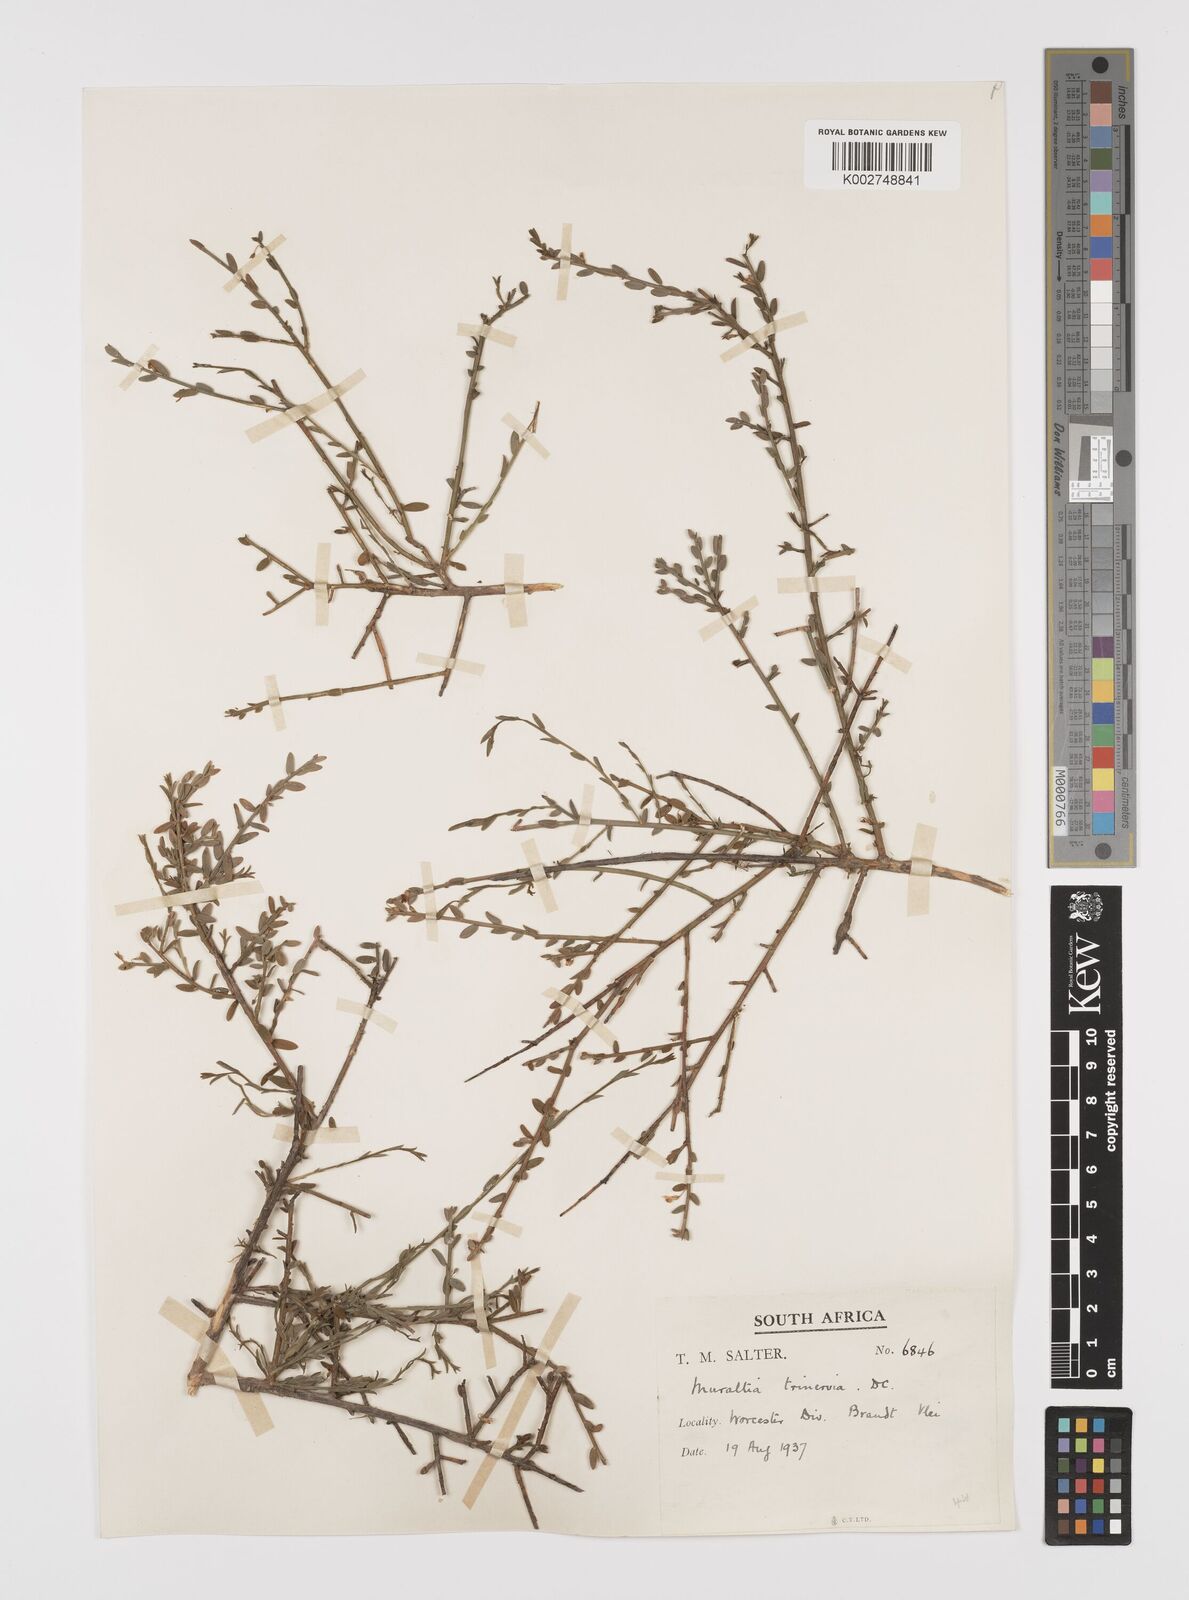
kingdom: Plantae
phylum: Tracheophyta
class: Magnoliopsida
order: Fabales
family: Polygalaceae
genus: Muraltia
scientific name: Muraltia muraltioides
